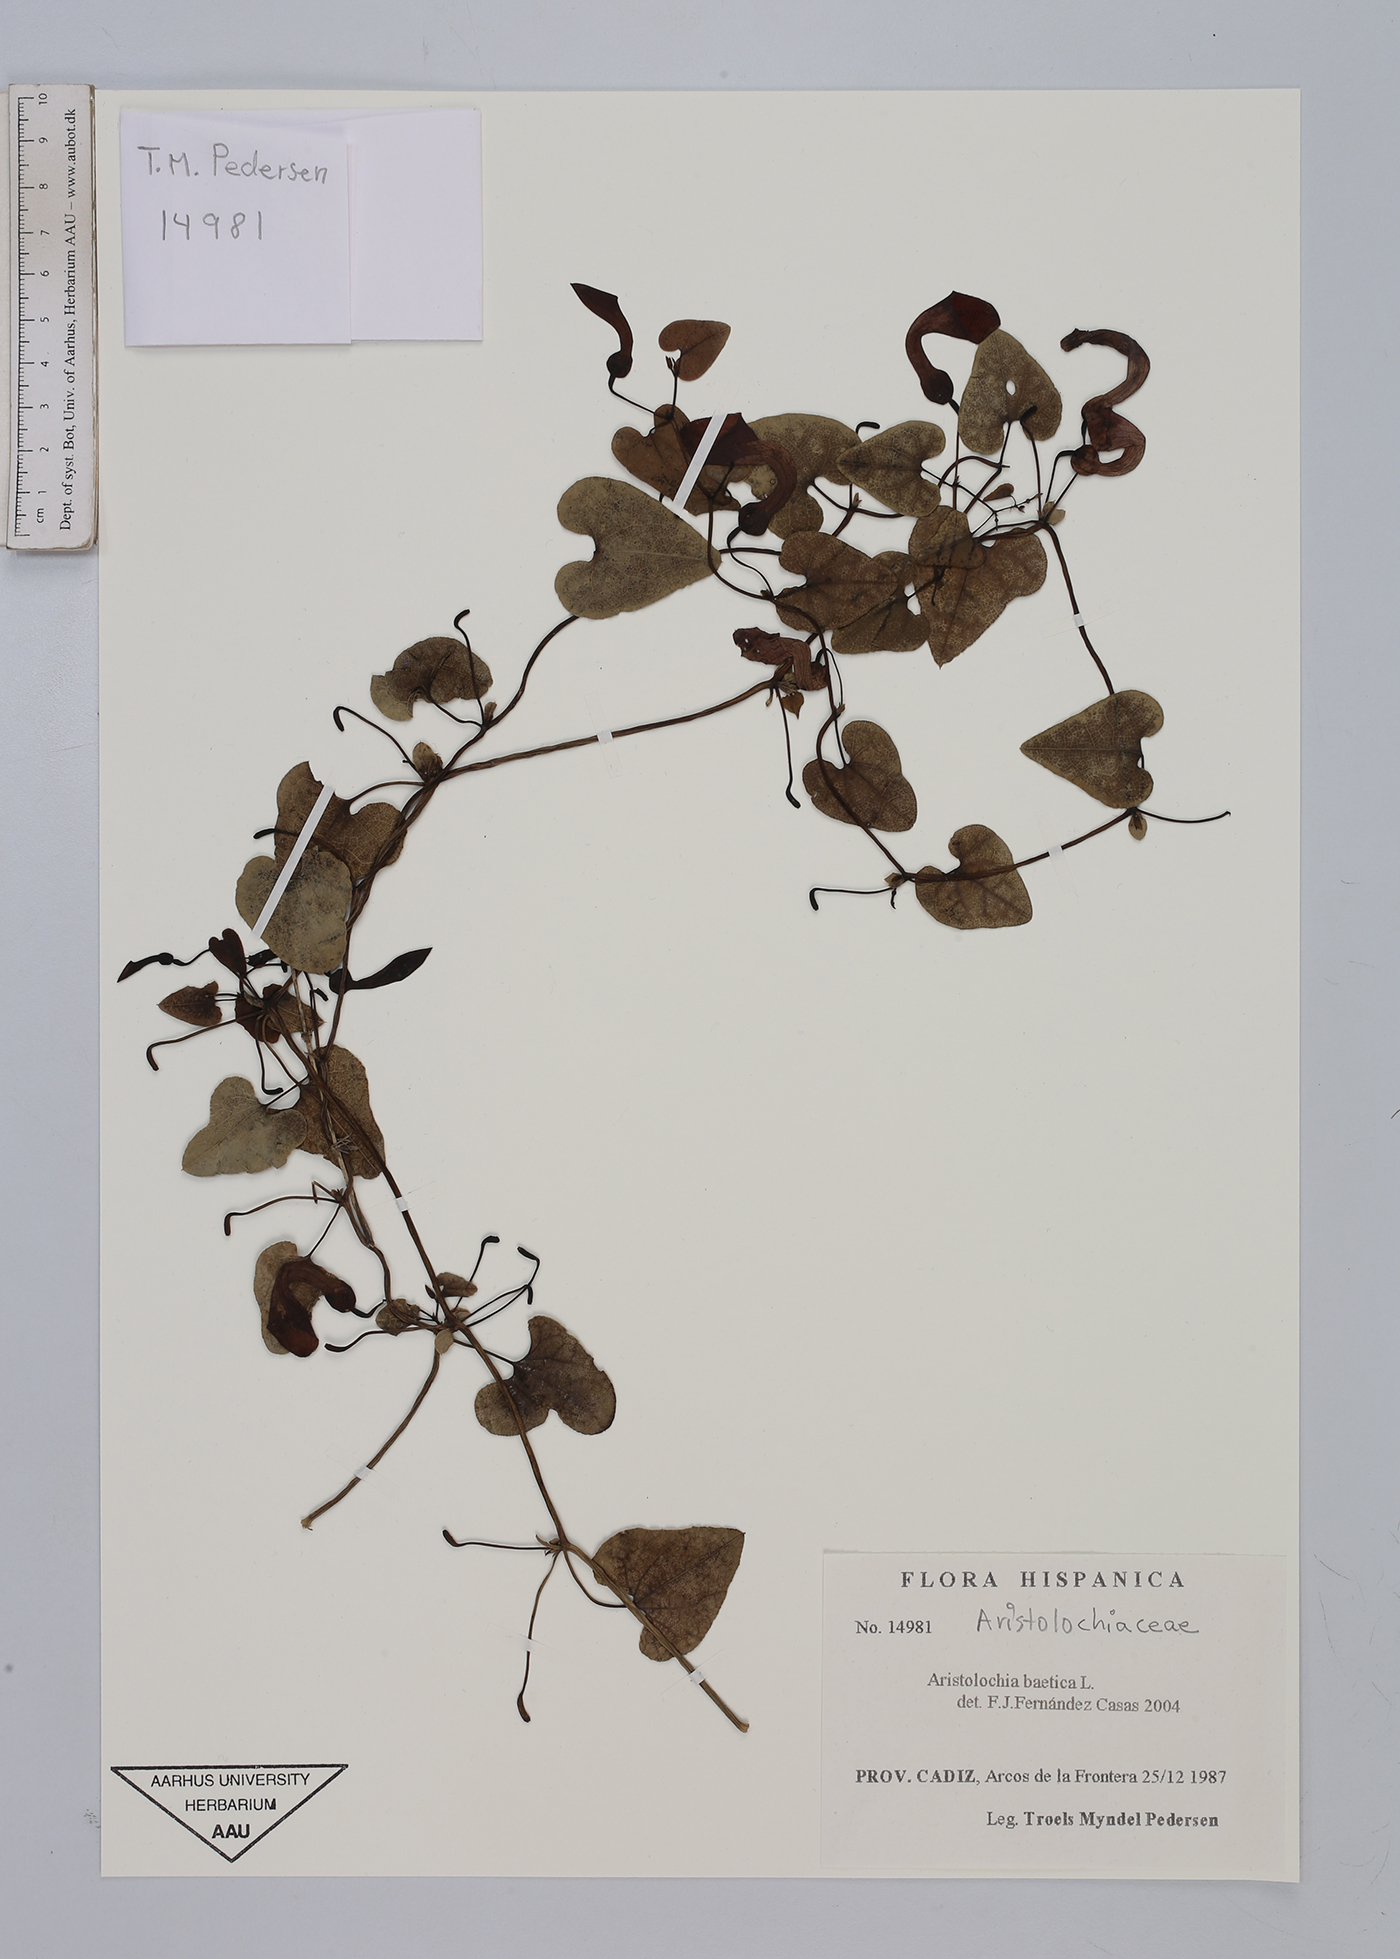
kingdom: Plantae
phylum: Tracheophyta
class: Magnoliopsida
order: Piperales
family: Aristolochiaceae
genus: Aristolochia
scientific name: Aristolochia baetica
